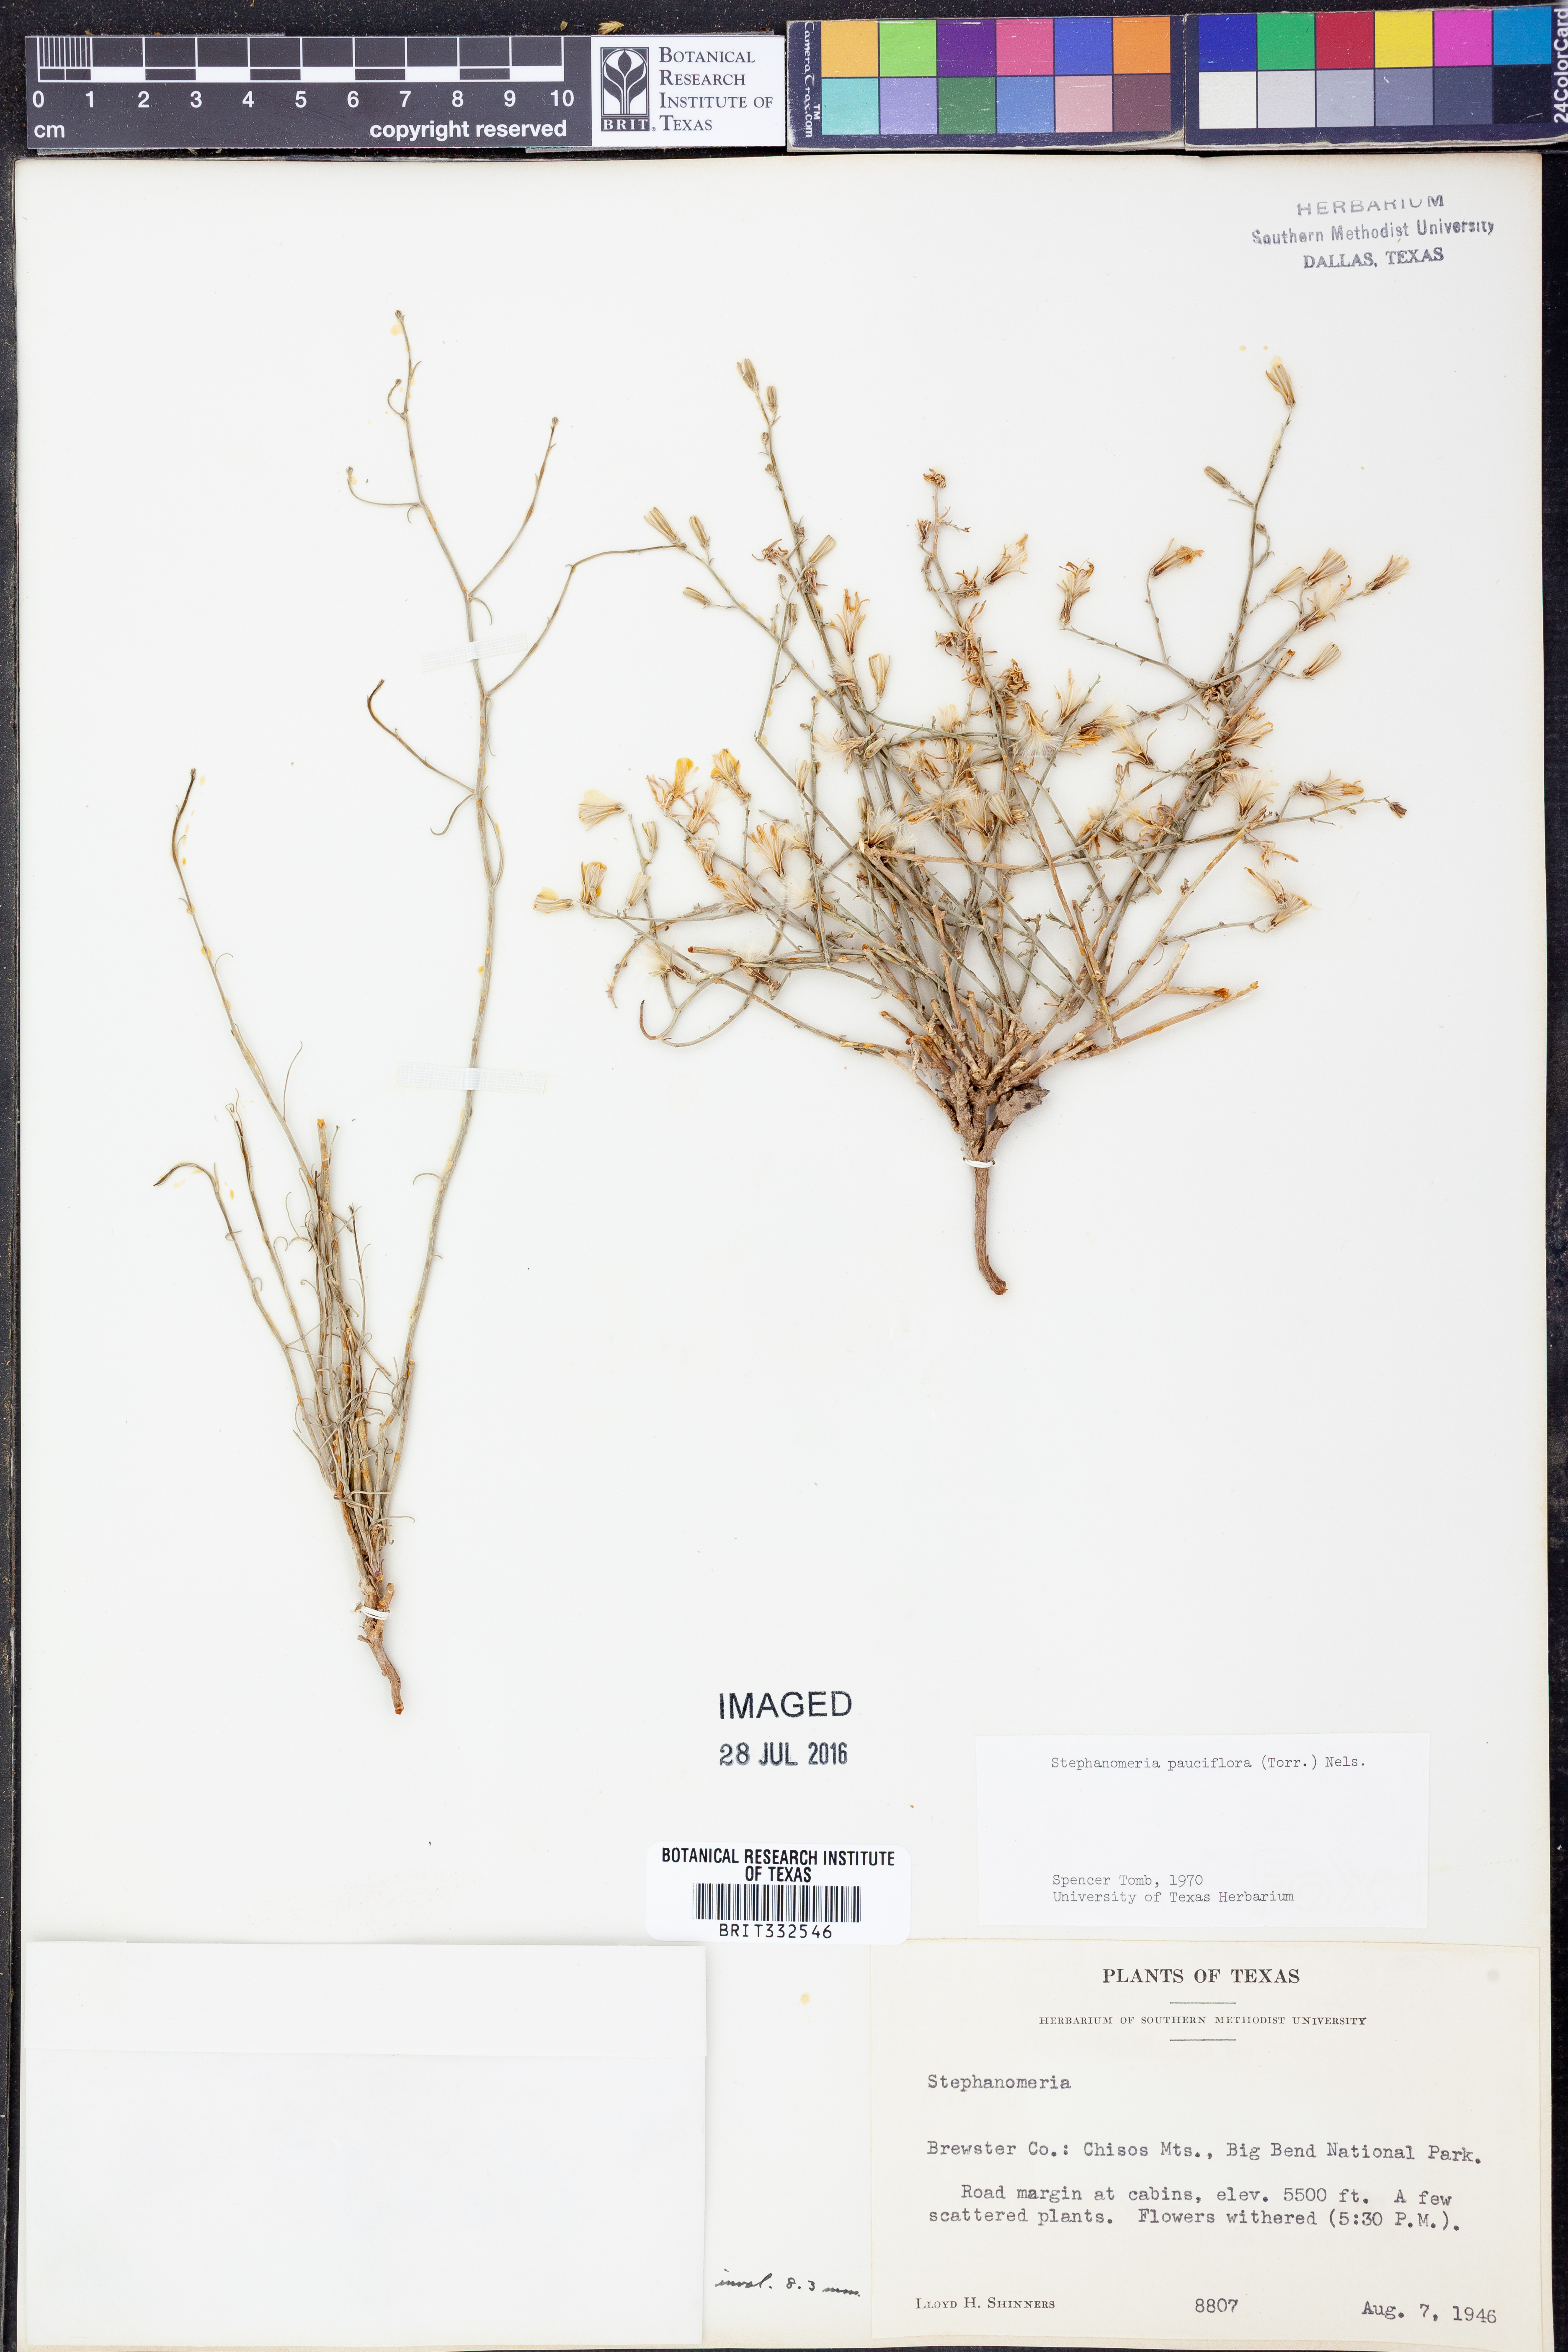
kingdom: Plantae
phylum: Tracheophyta
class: Magnoliopsida
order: Asterales
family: Asteraceae
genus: Stephanomeria
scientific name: Stephanomeria pauciflora
